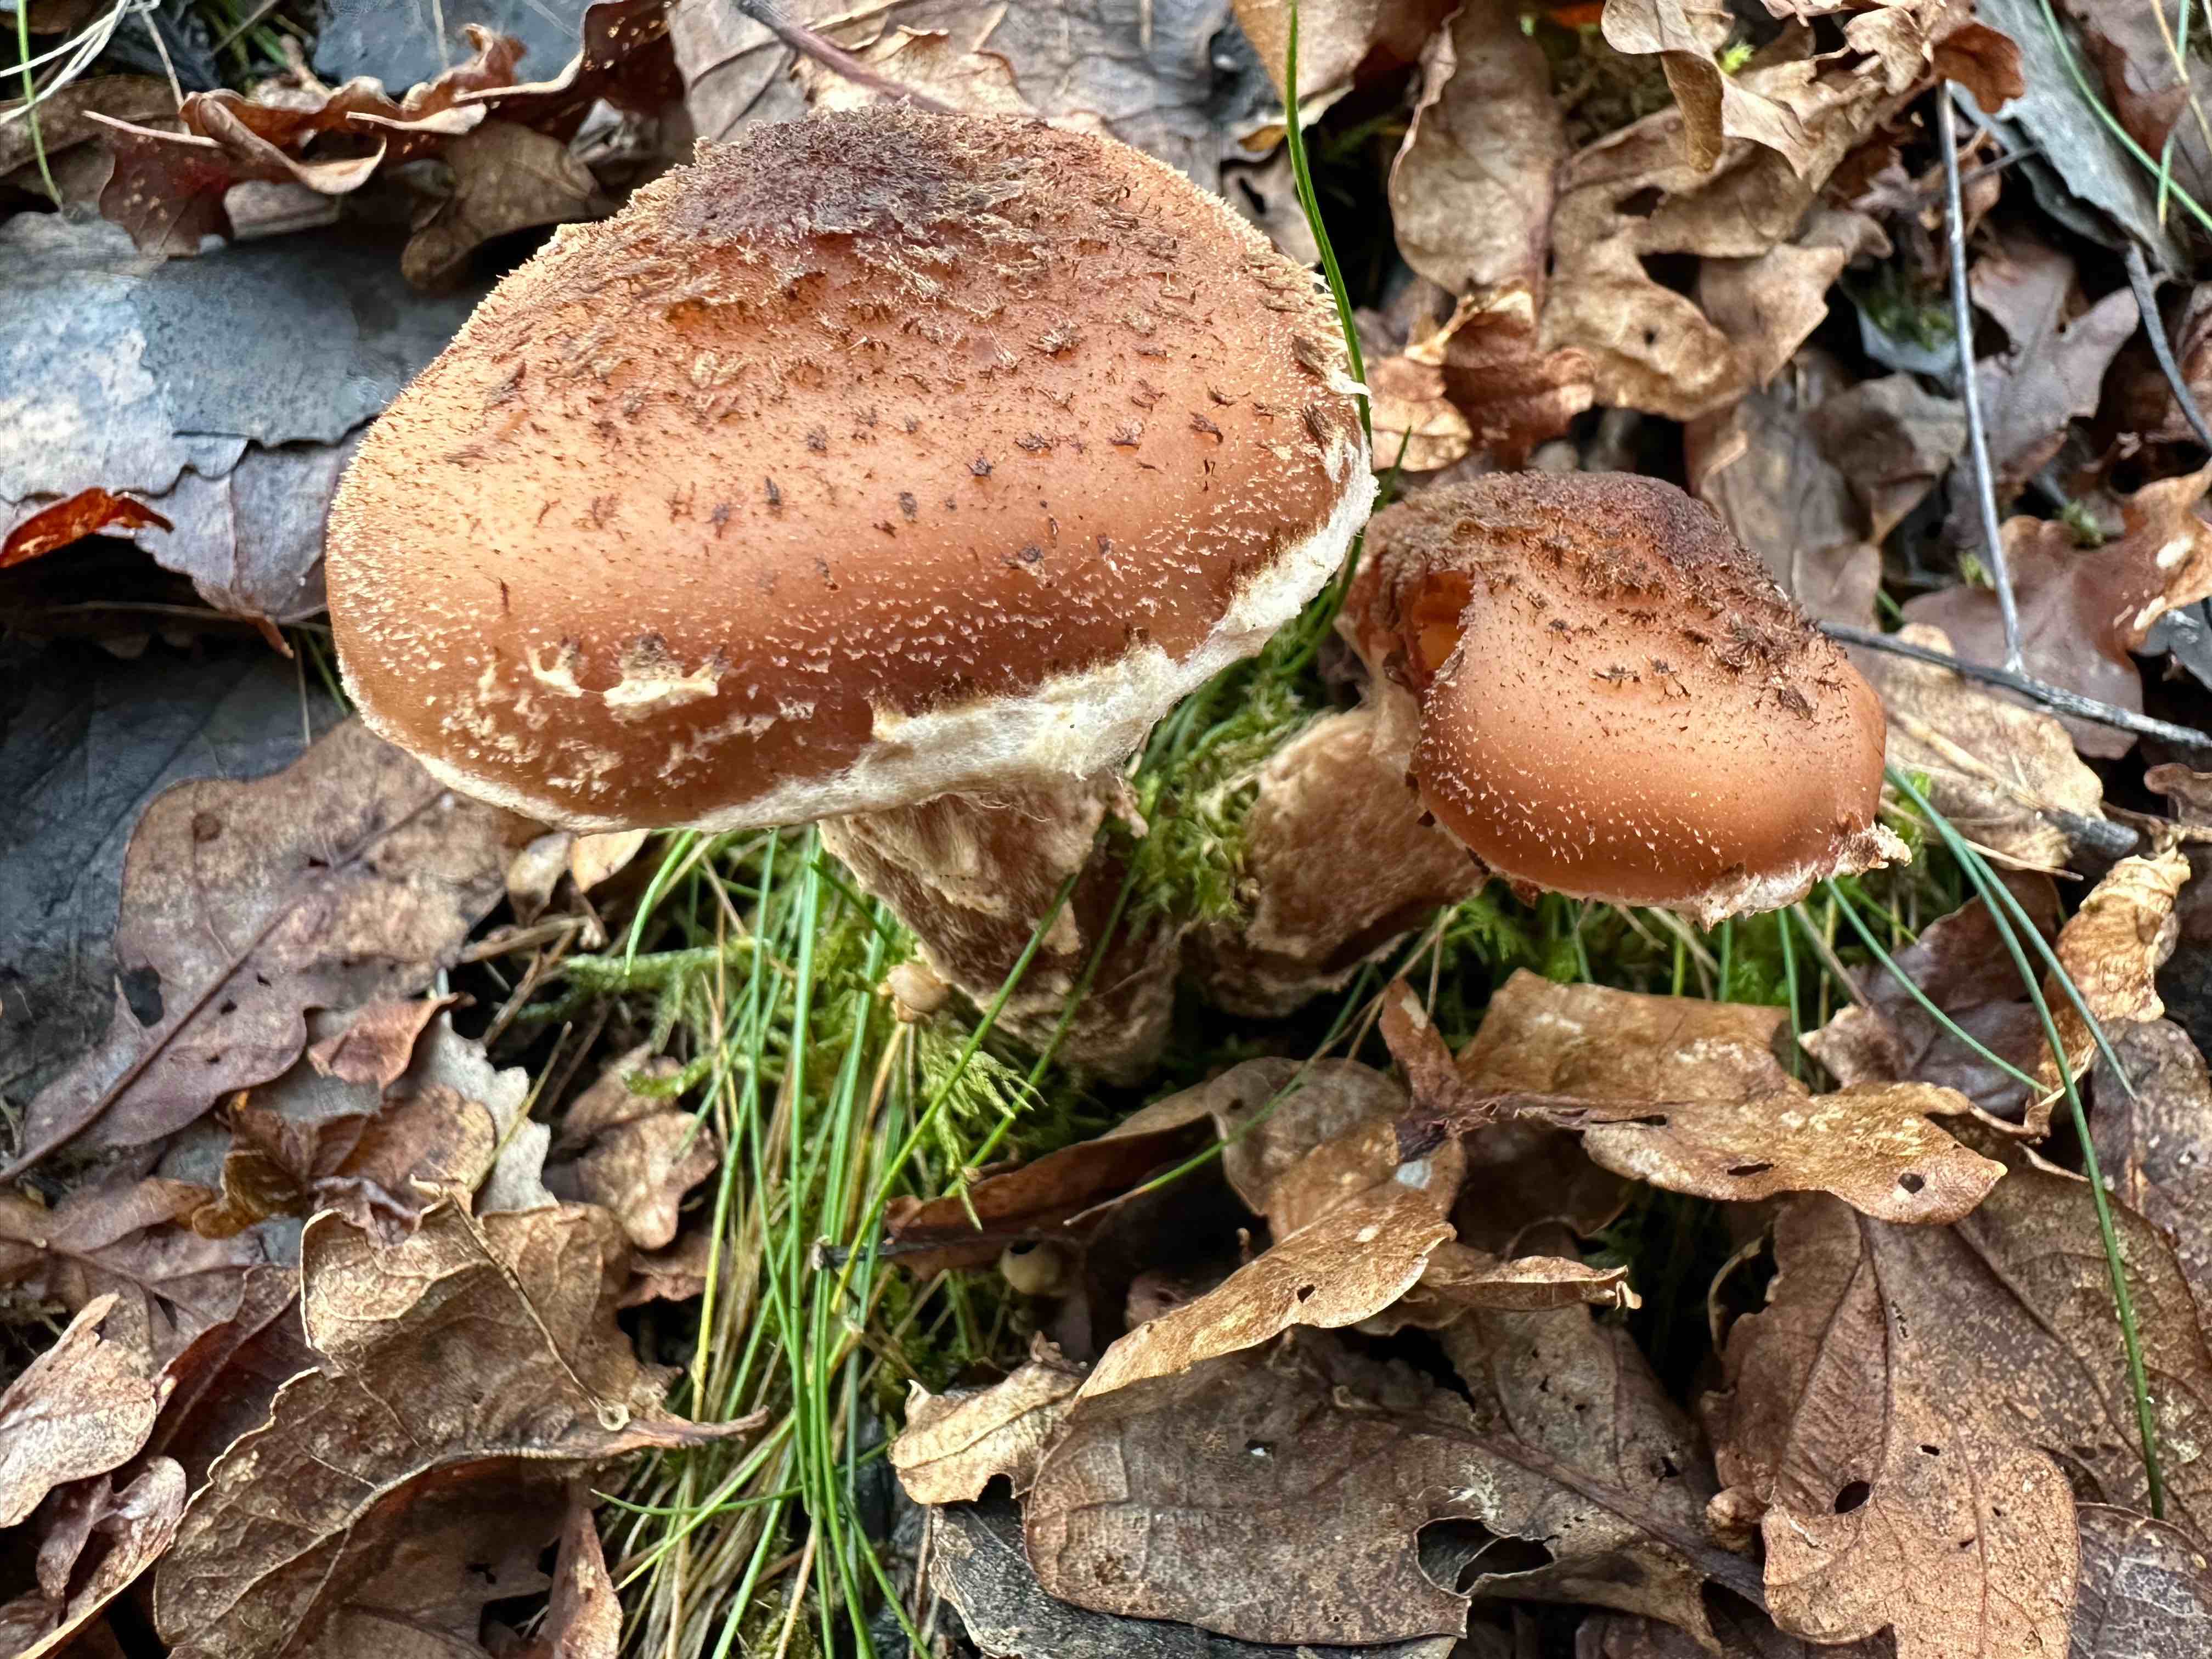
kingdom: Fungi
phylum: Basidiomycota
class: Agaricomycetes
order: Agaricales
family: Physalacriaceae
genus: Armillaria
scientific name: Armillaria ostoyae
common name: mørk honningsvamp
